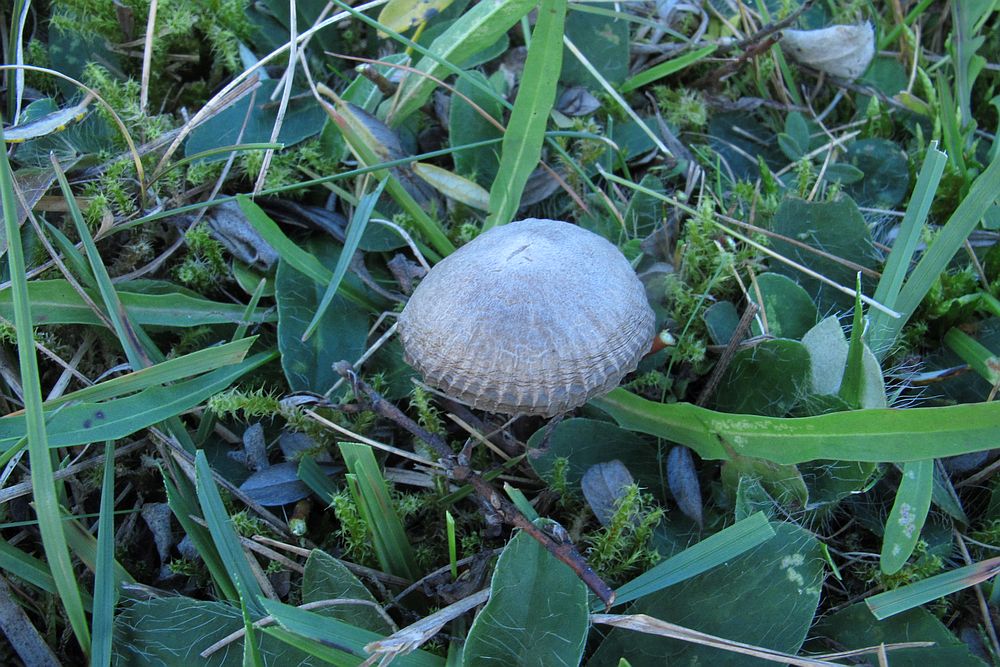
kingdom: Fungi
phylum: Basidiomycota
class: Agaricomycetes
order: Agaricales
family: Mycenaceae
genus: Mycena
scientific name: Mycena aetites
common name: plæne-huesvamp
